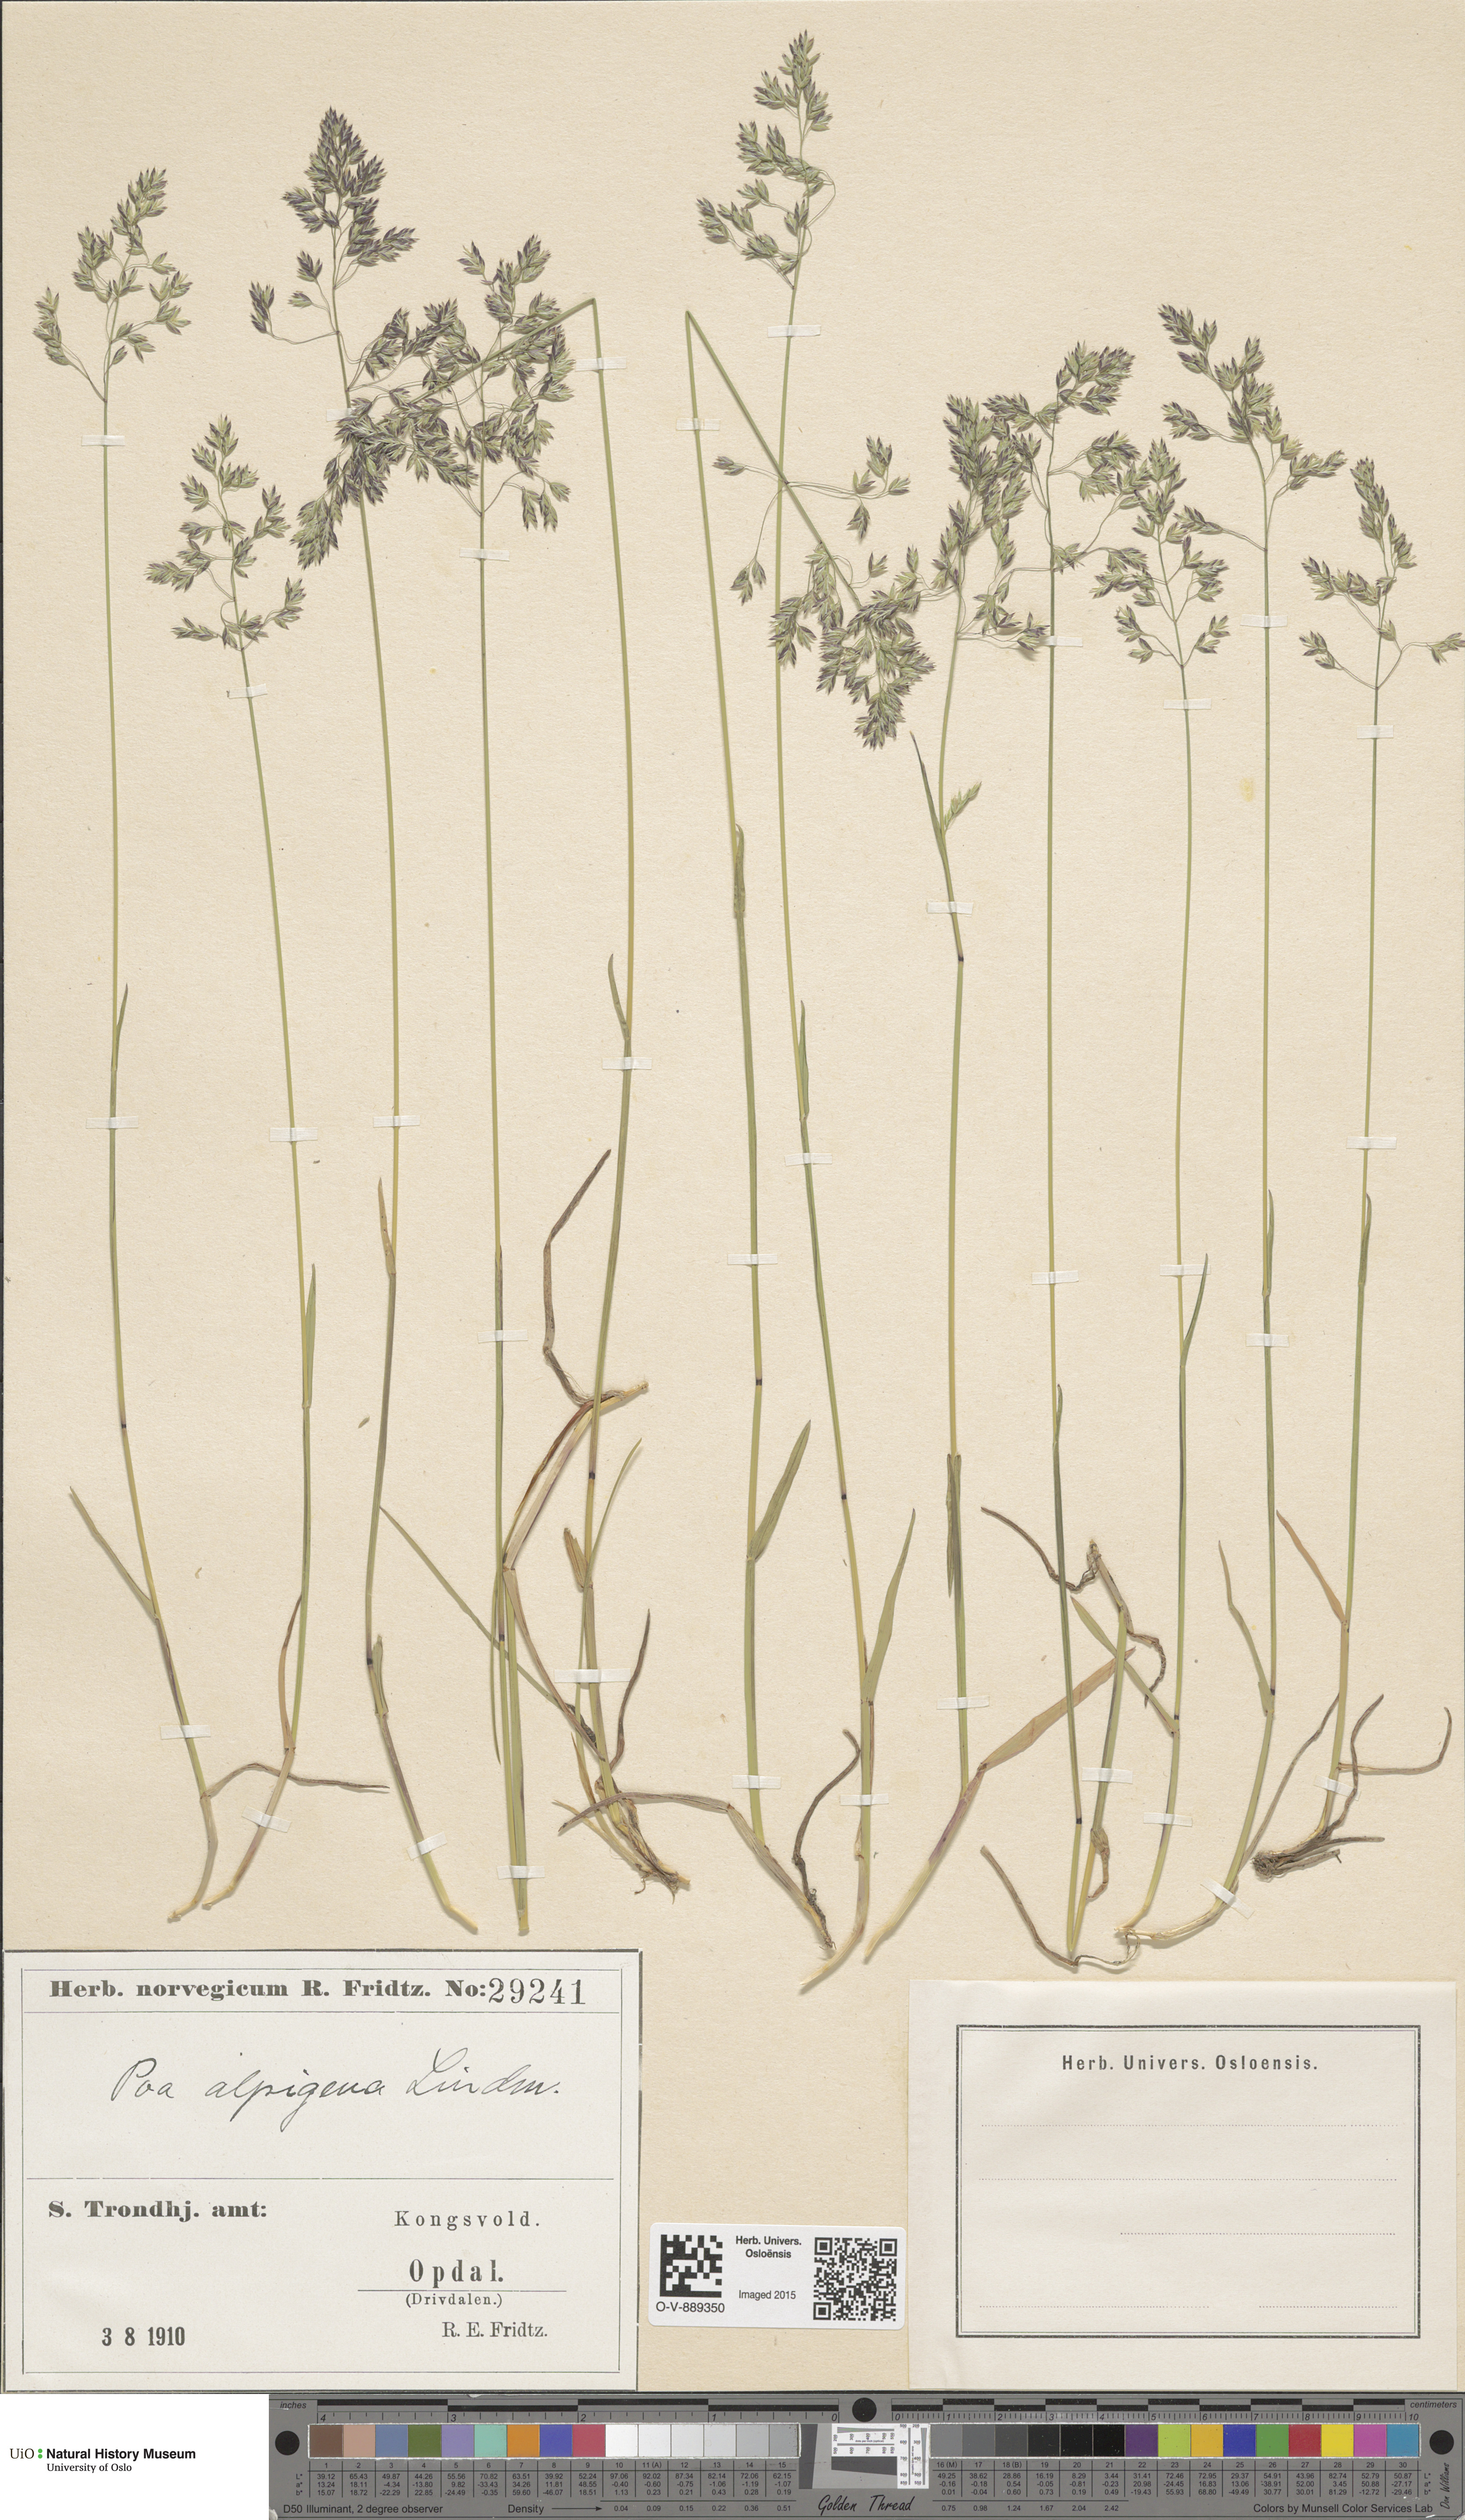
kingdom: Plantae
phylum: Tracheophyta
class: Liliopsida
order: Poales
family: Poaceae
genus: Poa
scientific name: Poa alpigena
